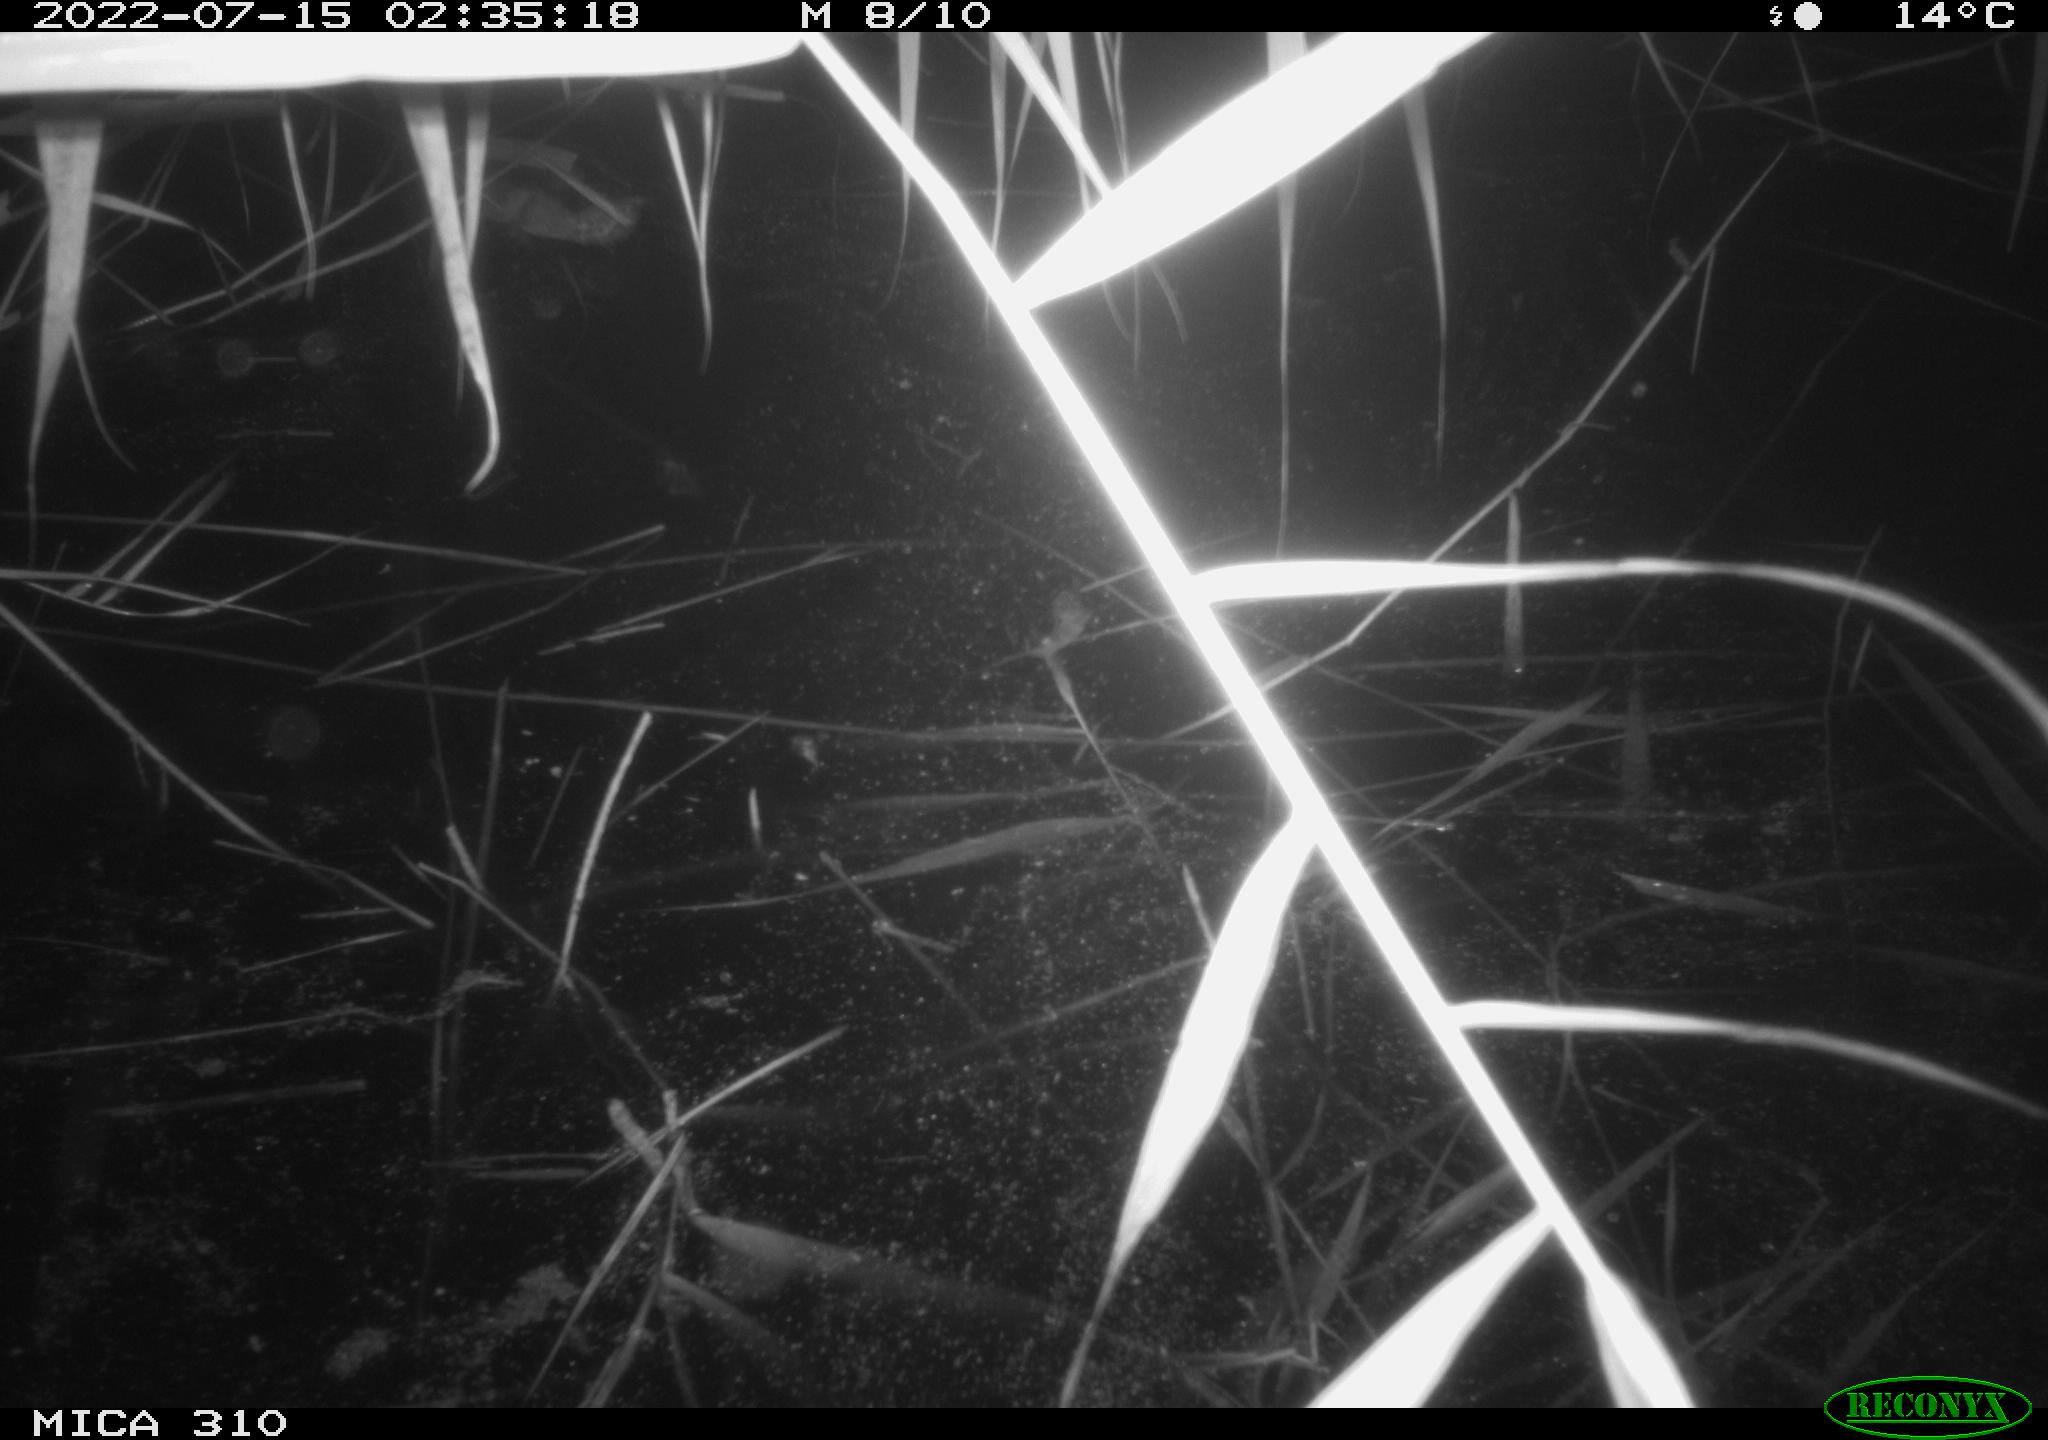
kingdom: Animalia
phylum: Chordata
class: Aves
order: Anseriformes
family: Anatidae
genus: Anas
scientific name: Anas platyrhynchos
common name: Mallard
